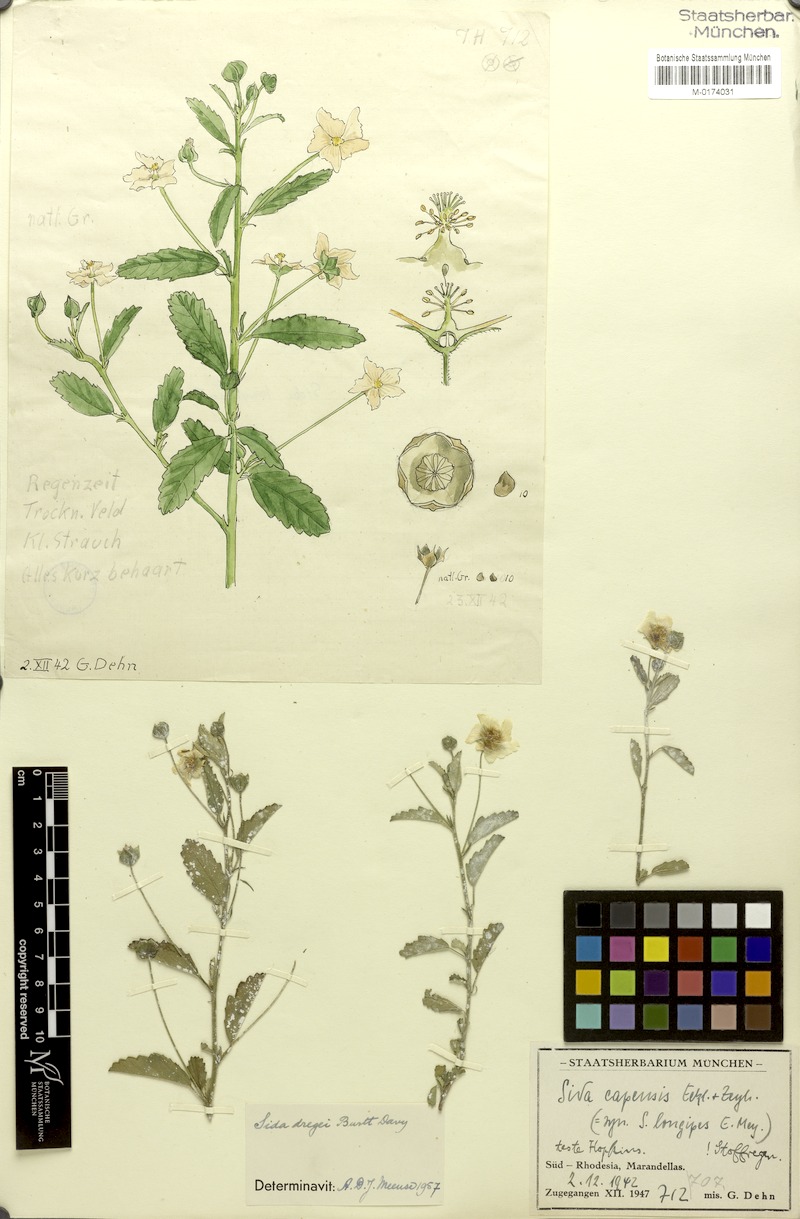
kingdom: Plantae
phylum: Tracheophyta
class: Magnoliopsida
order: Malvales
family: Malvaceae
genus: Sida
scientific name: Sida lancifolia
